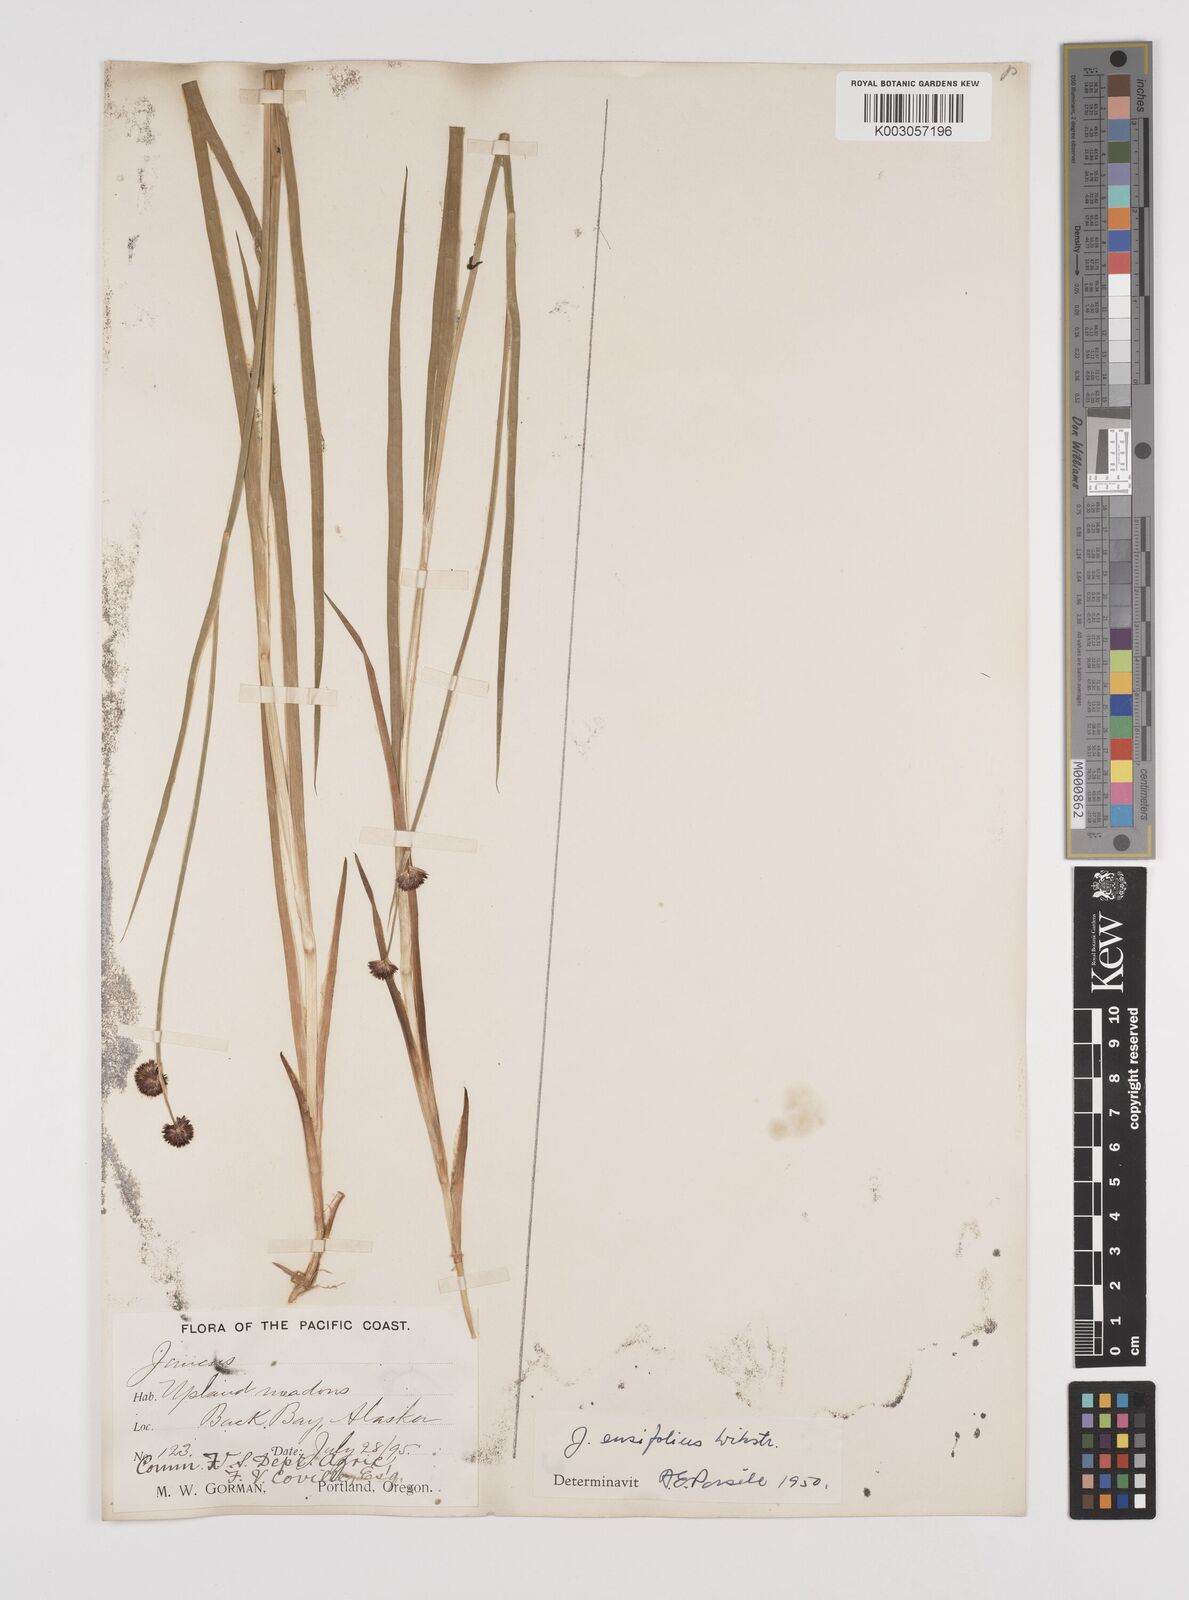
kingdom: Plantae
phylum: Tracheophyta
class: Liliopsida
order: Poales
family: Juncaceae
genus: Juncus
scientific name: Juncus ensifolius
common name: Sword-leaved rush
